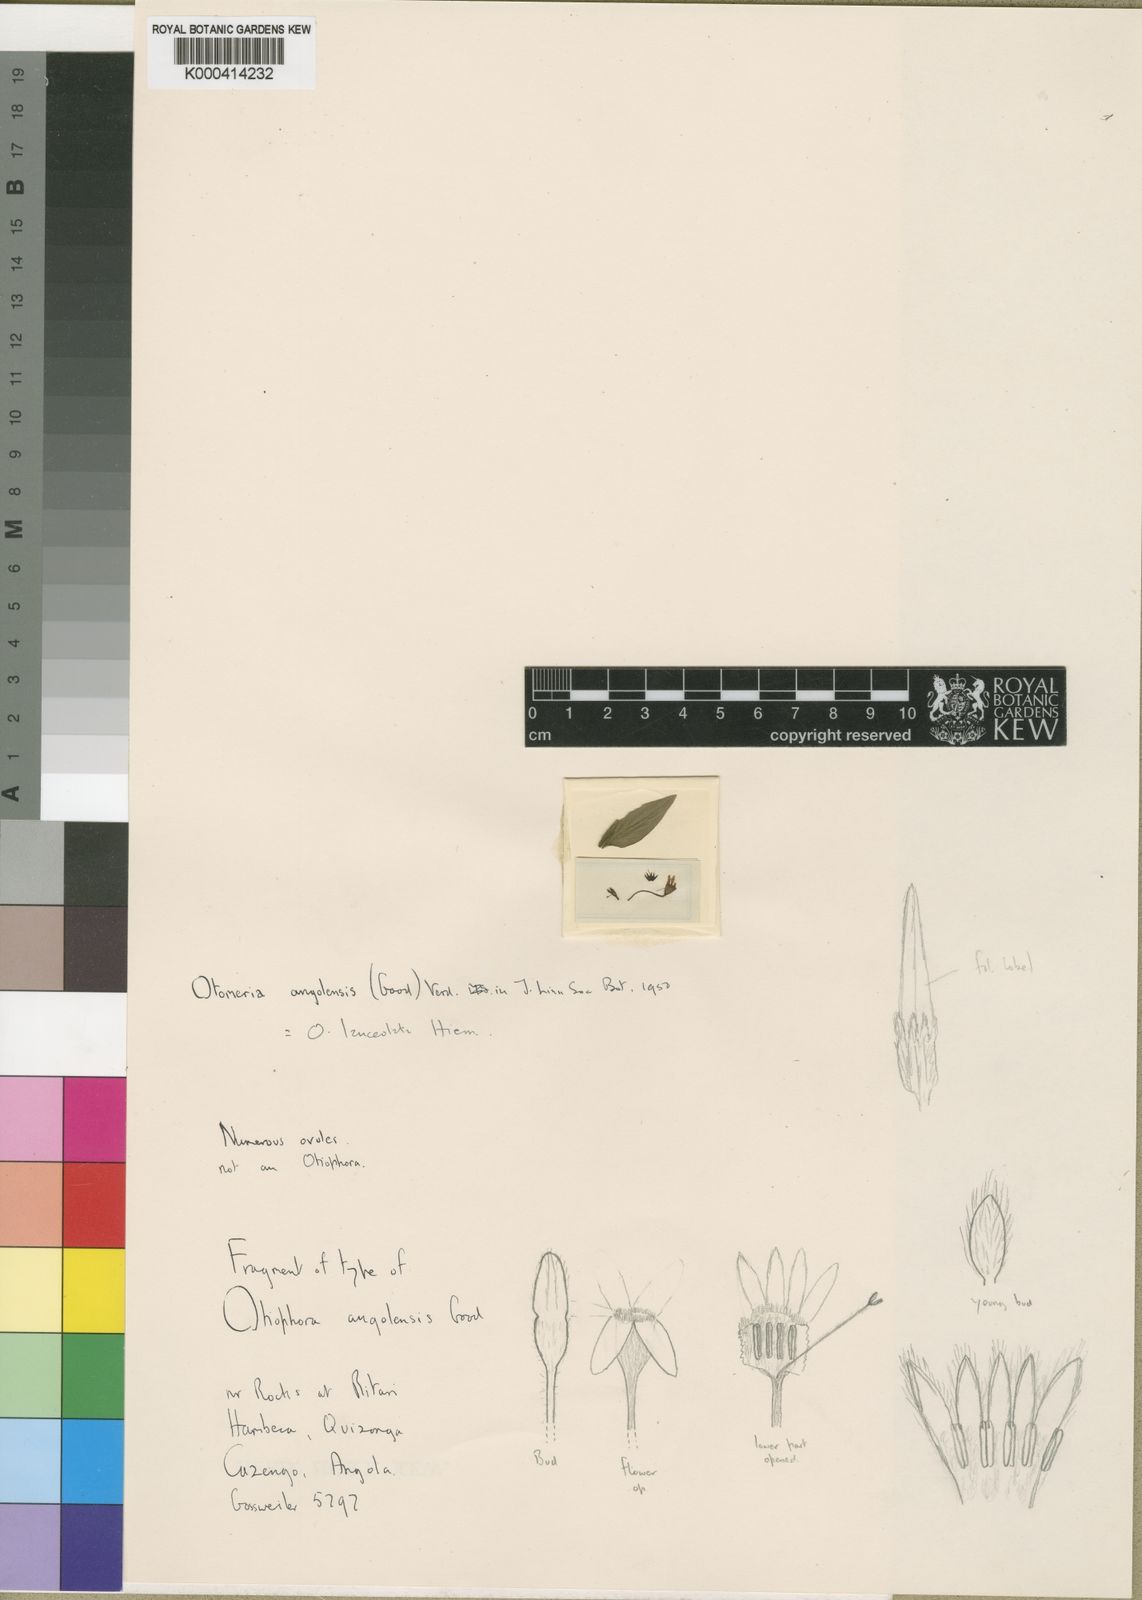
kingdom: Plantae
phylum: Tracheophyta
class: Magnoliopsida
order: Gentianales
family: Rubiaceae
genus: Otomeria
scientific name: Otomeria lanceolata
